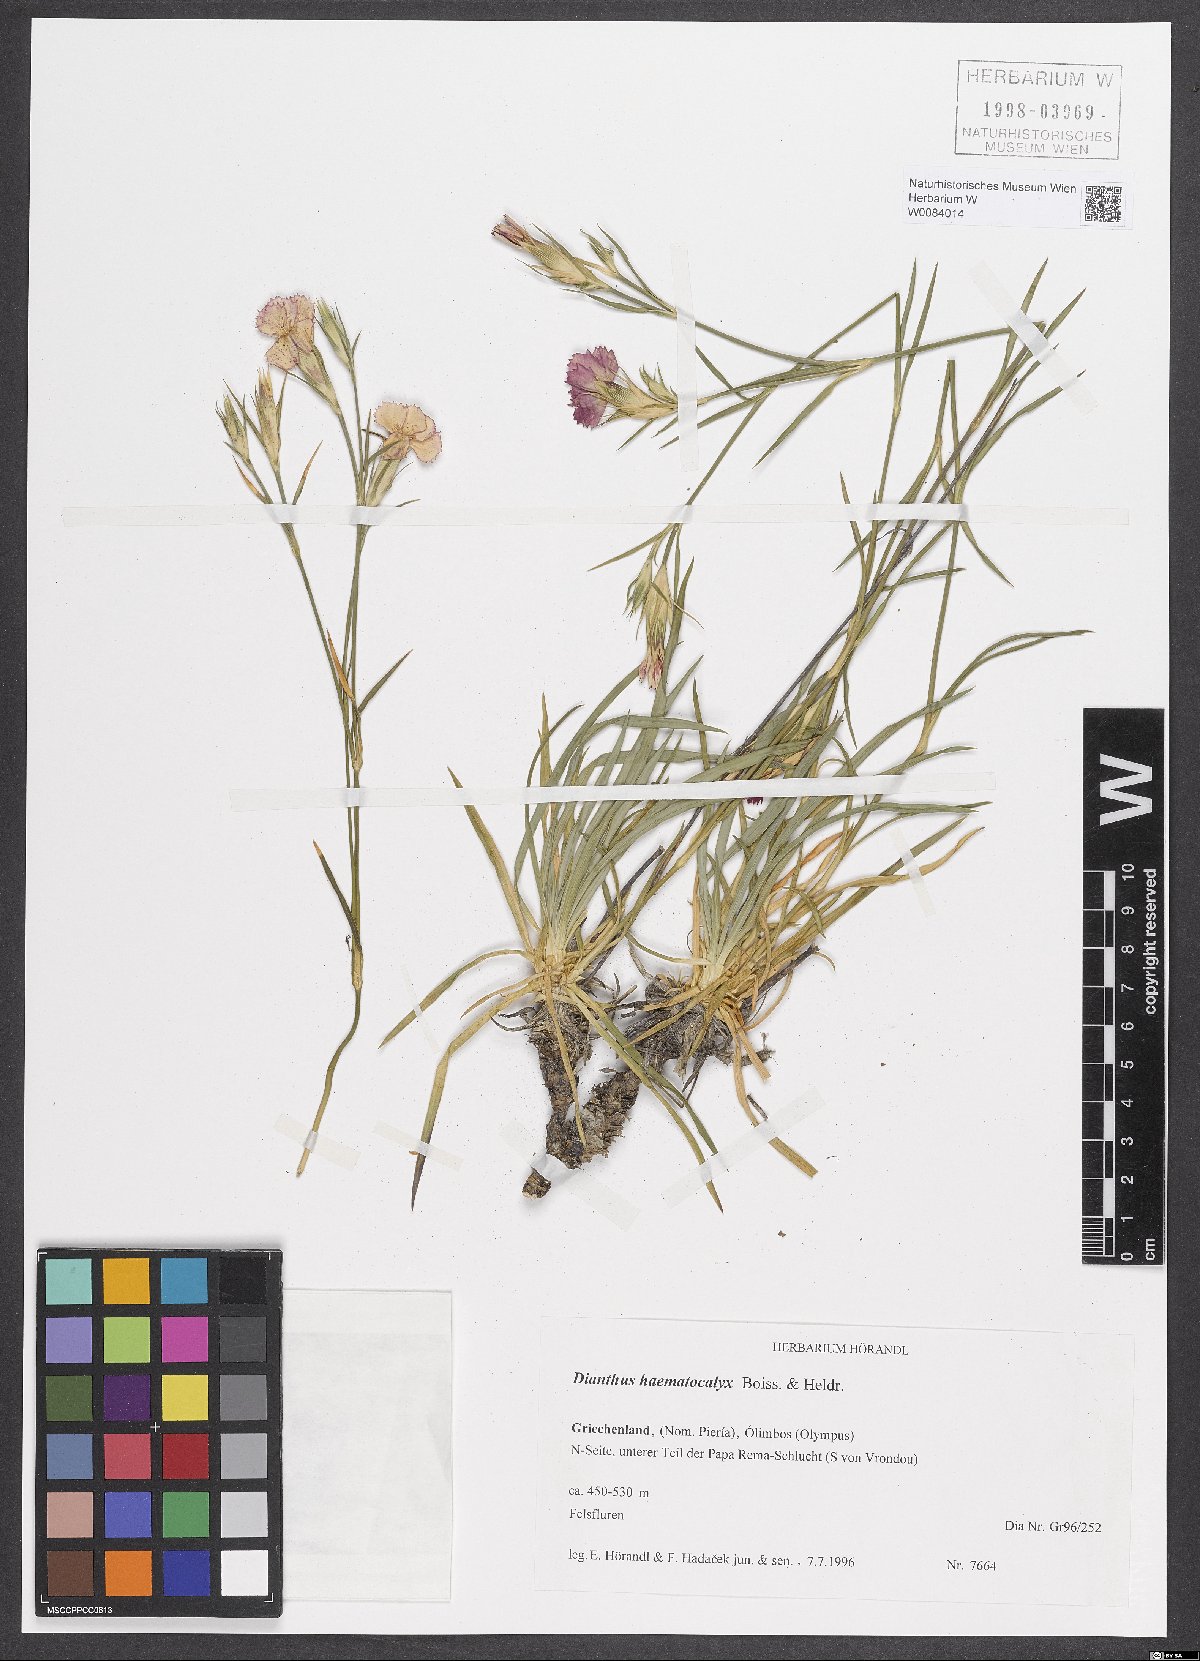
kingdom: Plantae
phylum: Tracheophyta
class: Magnoliopsida
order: Caryophyllales
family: Caryophyllaceae
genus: Dianthus
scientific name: Dianthus haematocalyx
